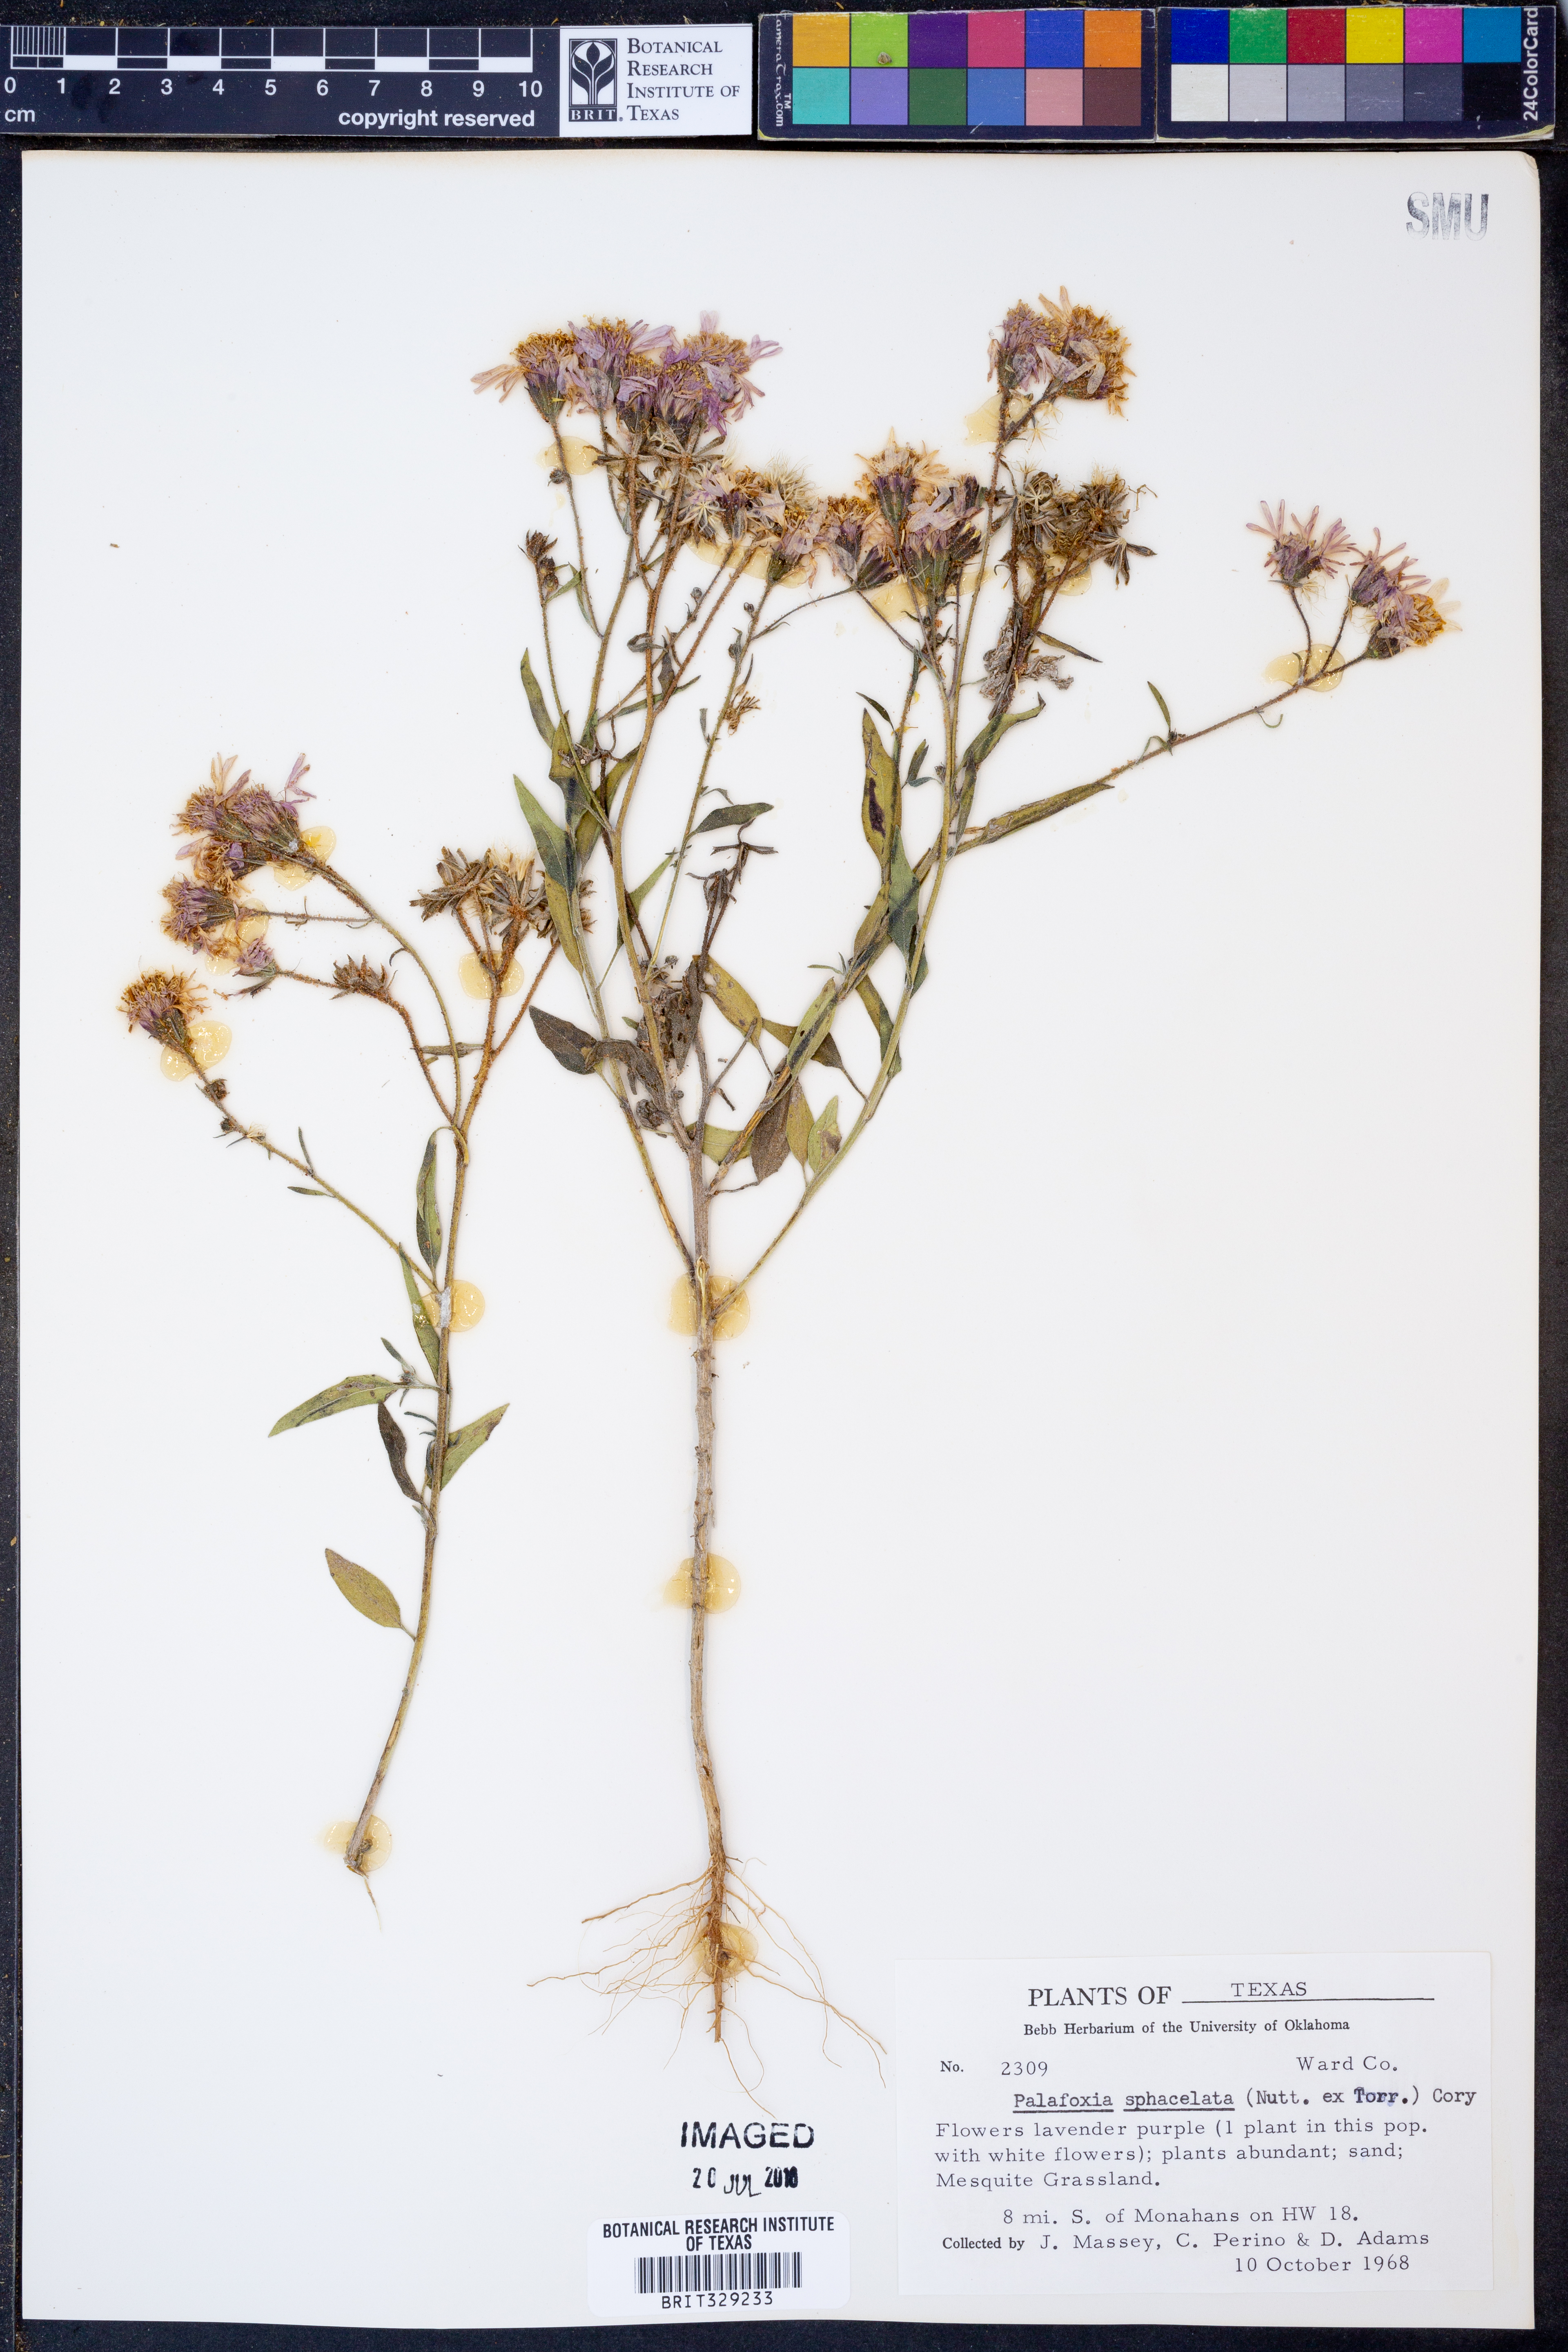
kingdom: Plantae
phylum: Tracheophyta
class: Magnoliopsida
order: Asterales
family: Asteraceae
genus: Palafoxia
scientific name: Palafoxia sphacelata
